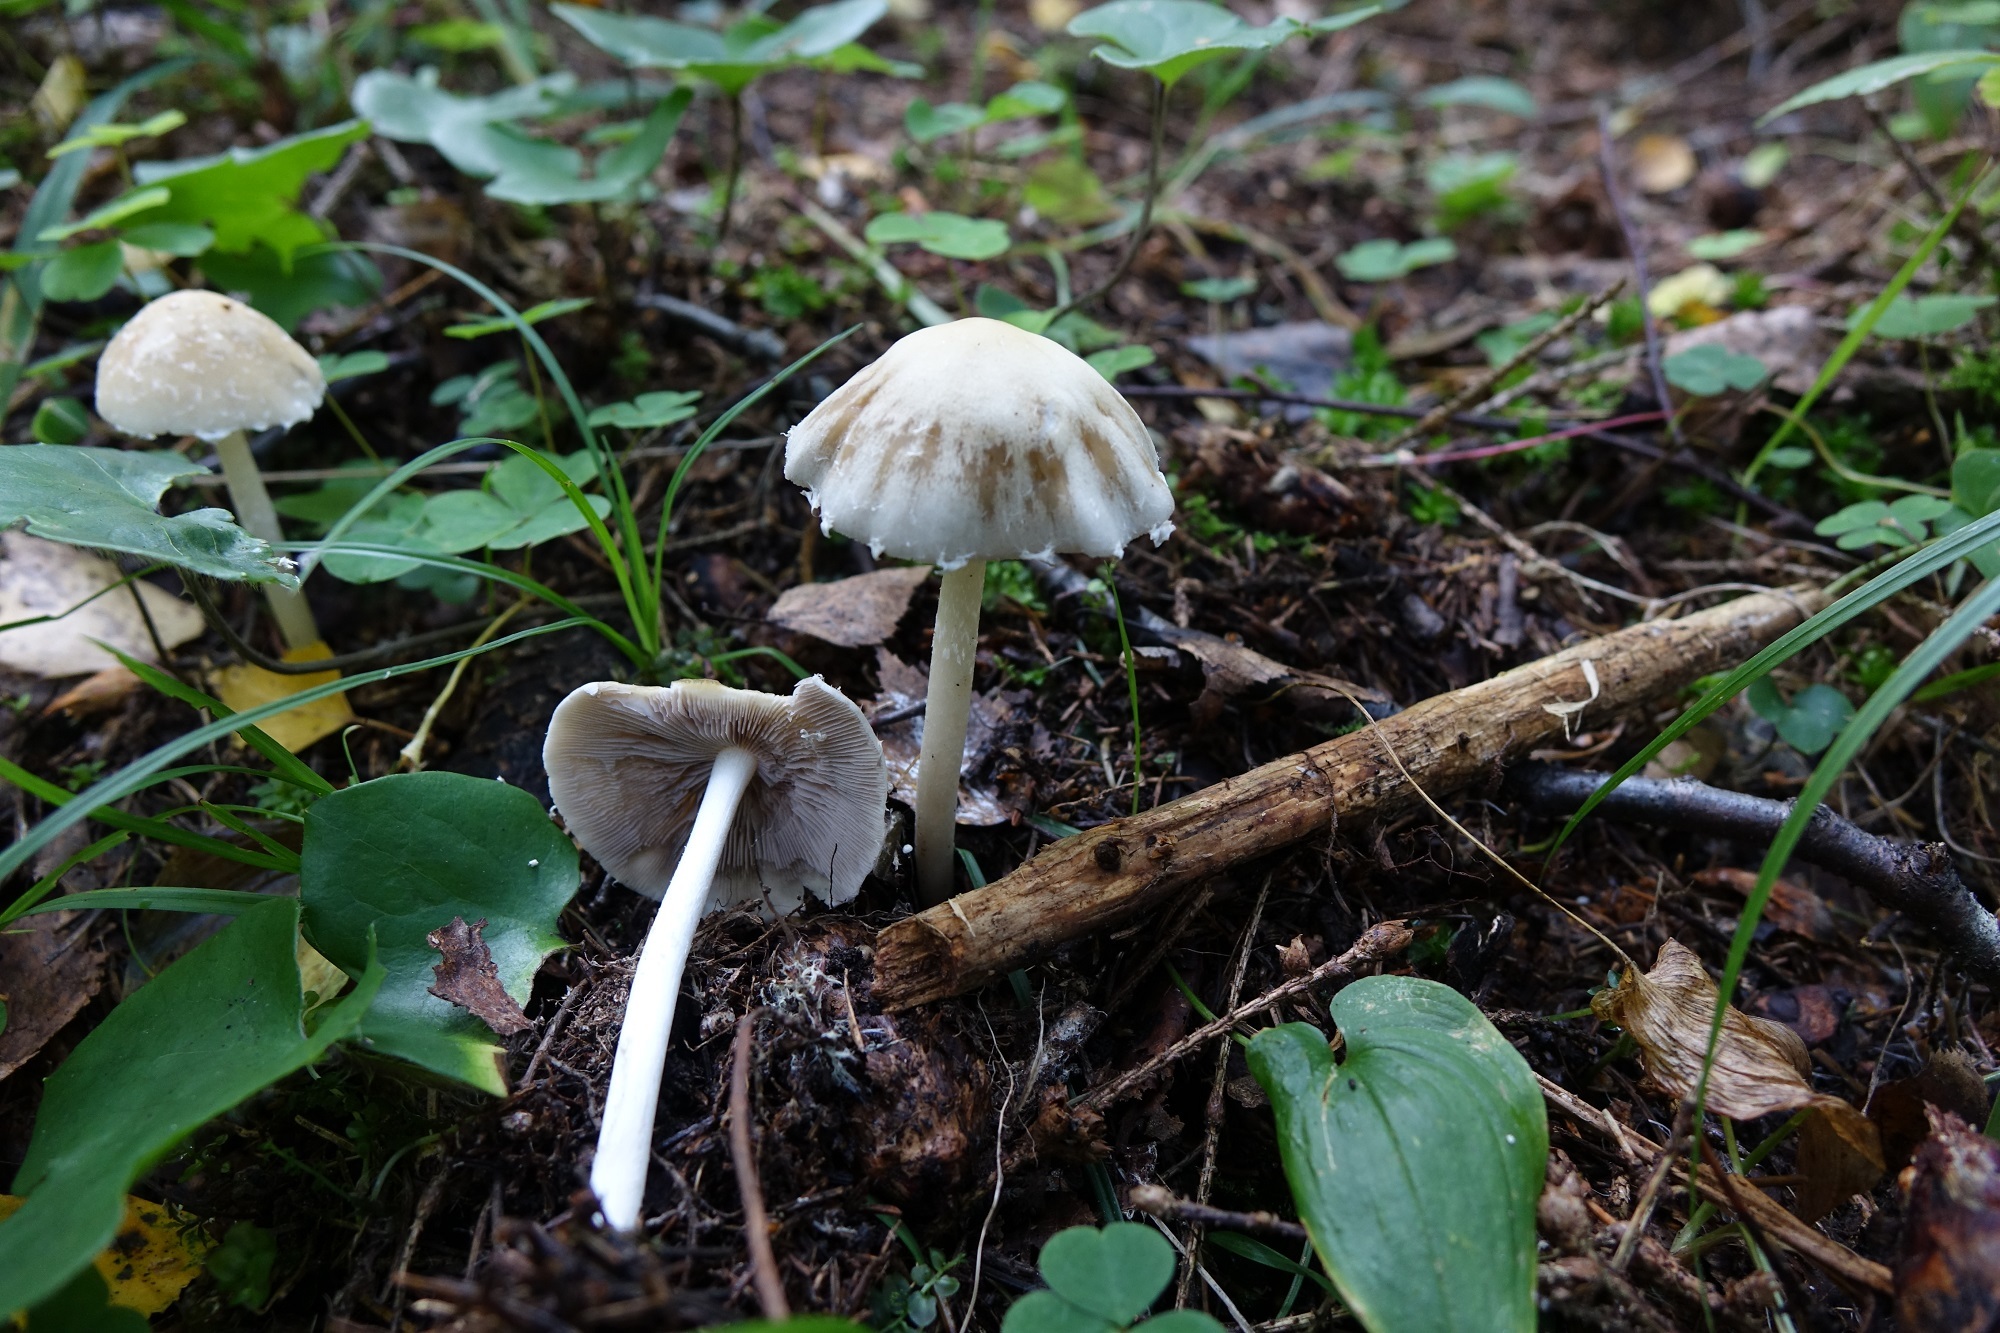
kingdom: Fungi
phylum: Basidiomycota
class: Agaricomycetes
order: Agaricales
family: Psathyrellaceae
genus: Candolleomyces
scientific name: Candolleomyces candolleanus
